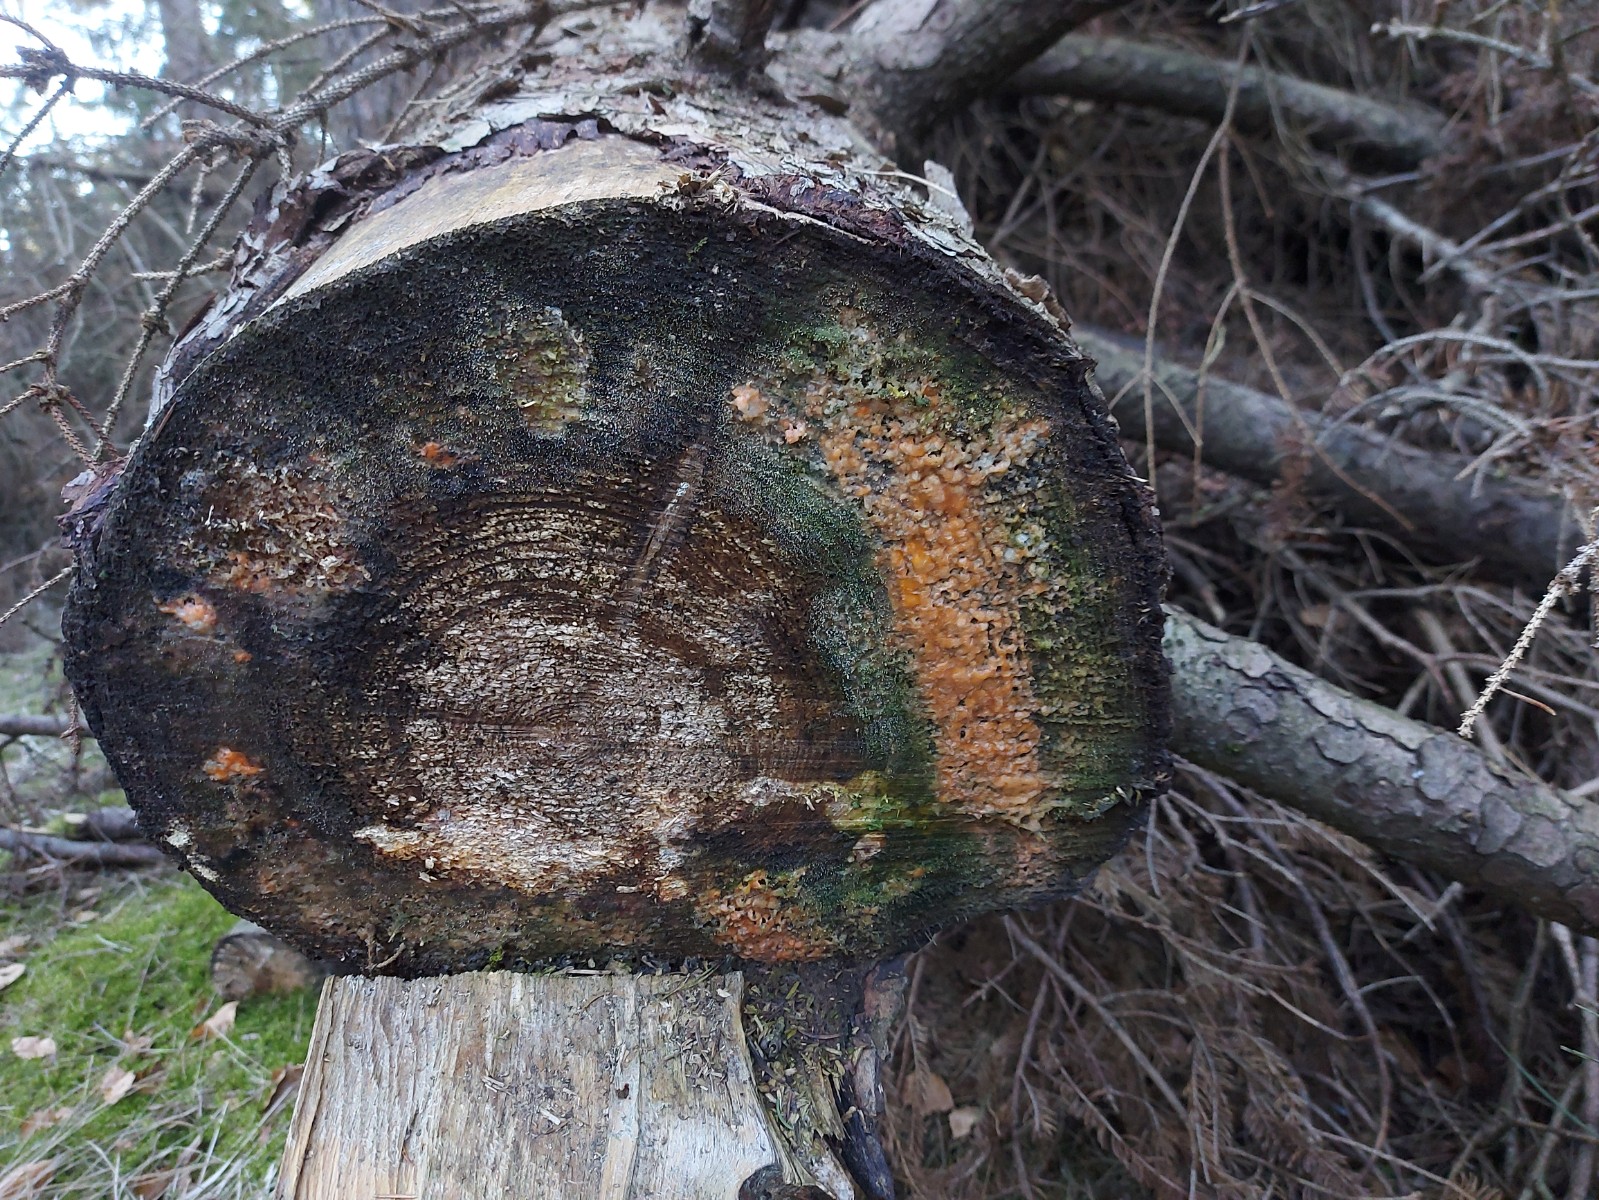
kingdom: Fungi
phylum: Ascomycota
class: Sordariomycetes
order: Hypocreales
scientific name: Hypocreales
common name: kødkerneordenen
